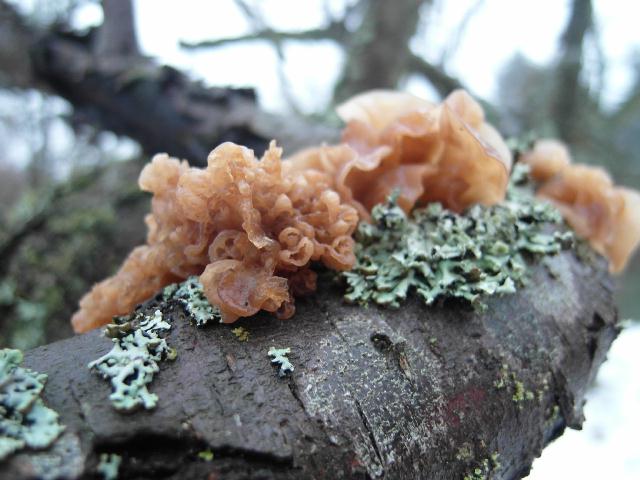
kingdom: Fungi
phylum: Basidiomycota
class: Tremellomycetes
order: Tremellales
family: Tremellaceae
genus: Phaeotremella
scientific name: Phaeotremella frondosa
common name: kæmpe-bævresvamp
